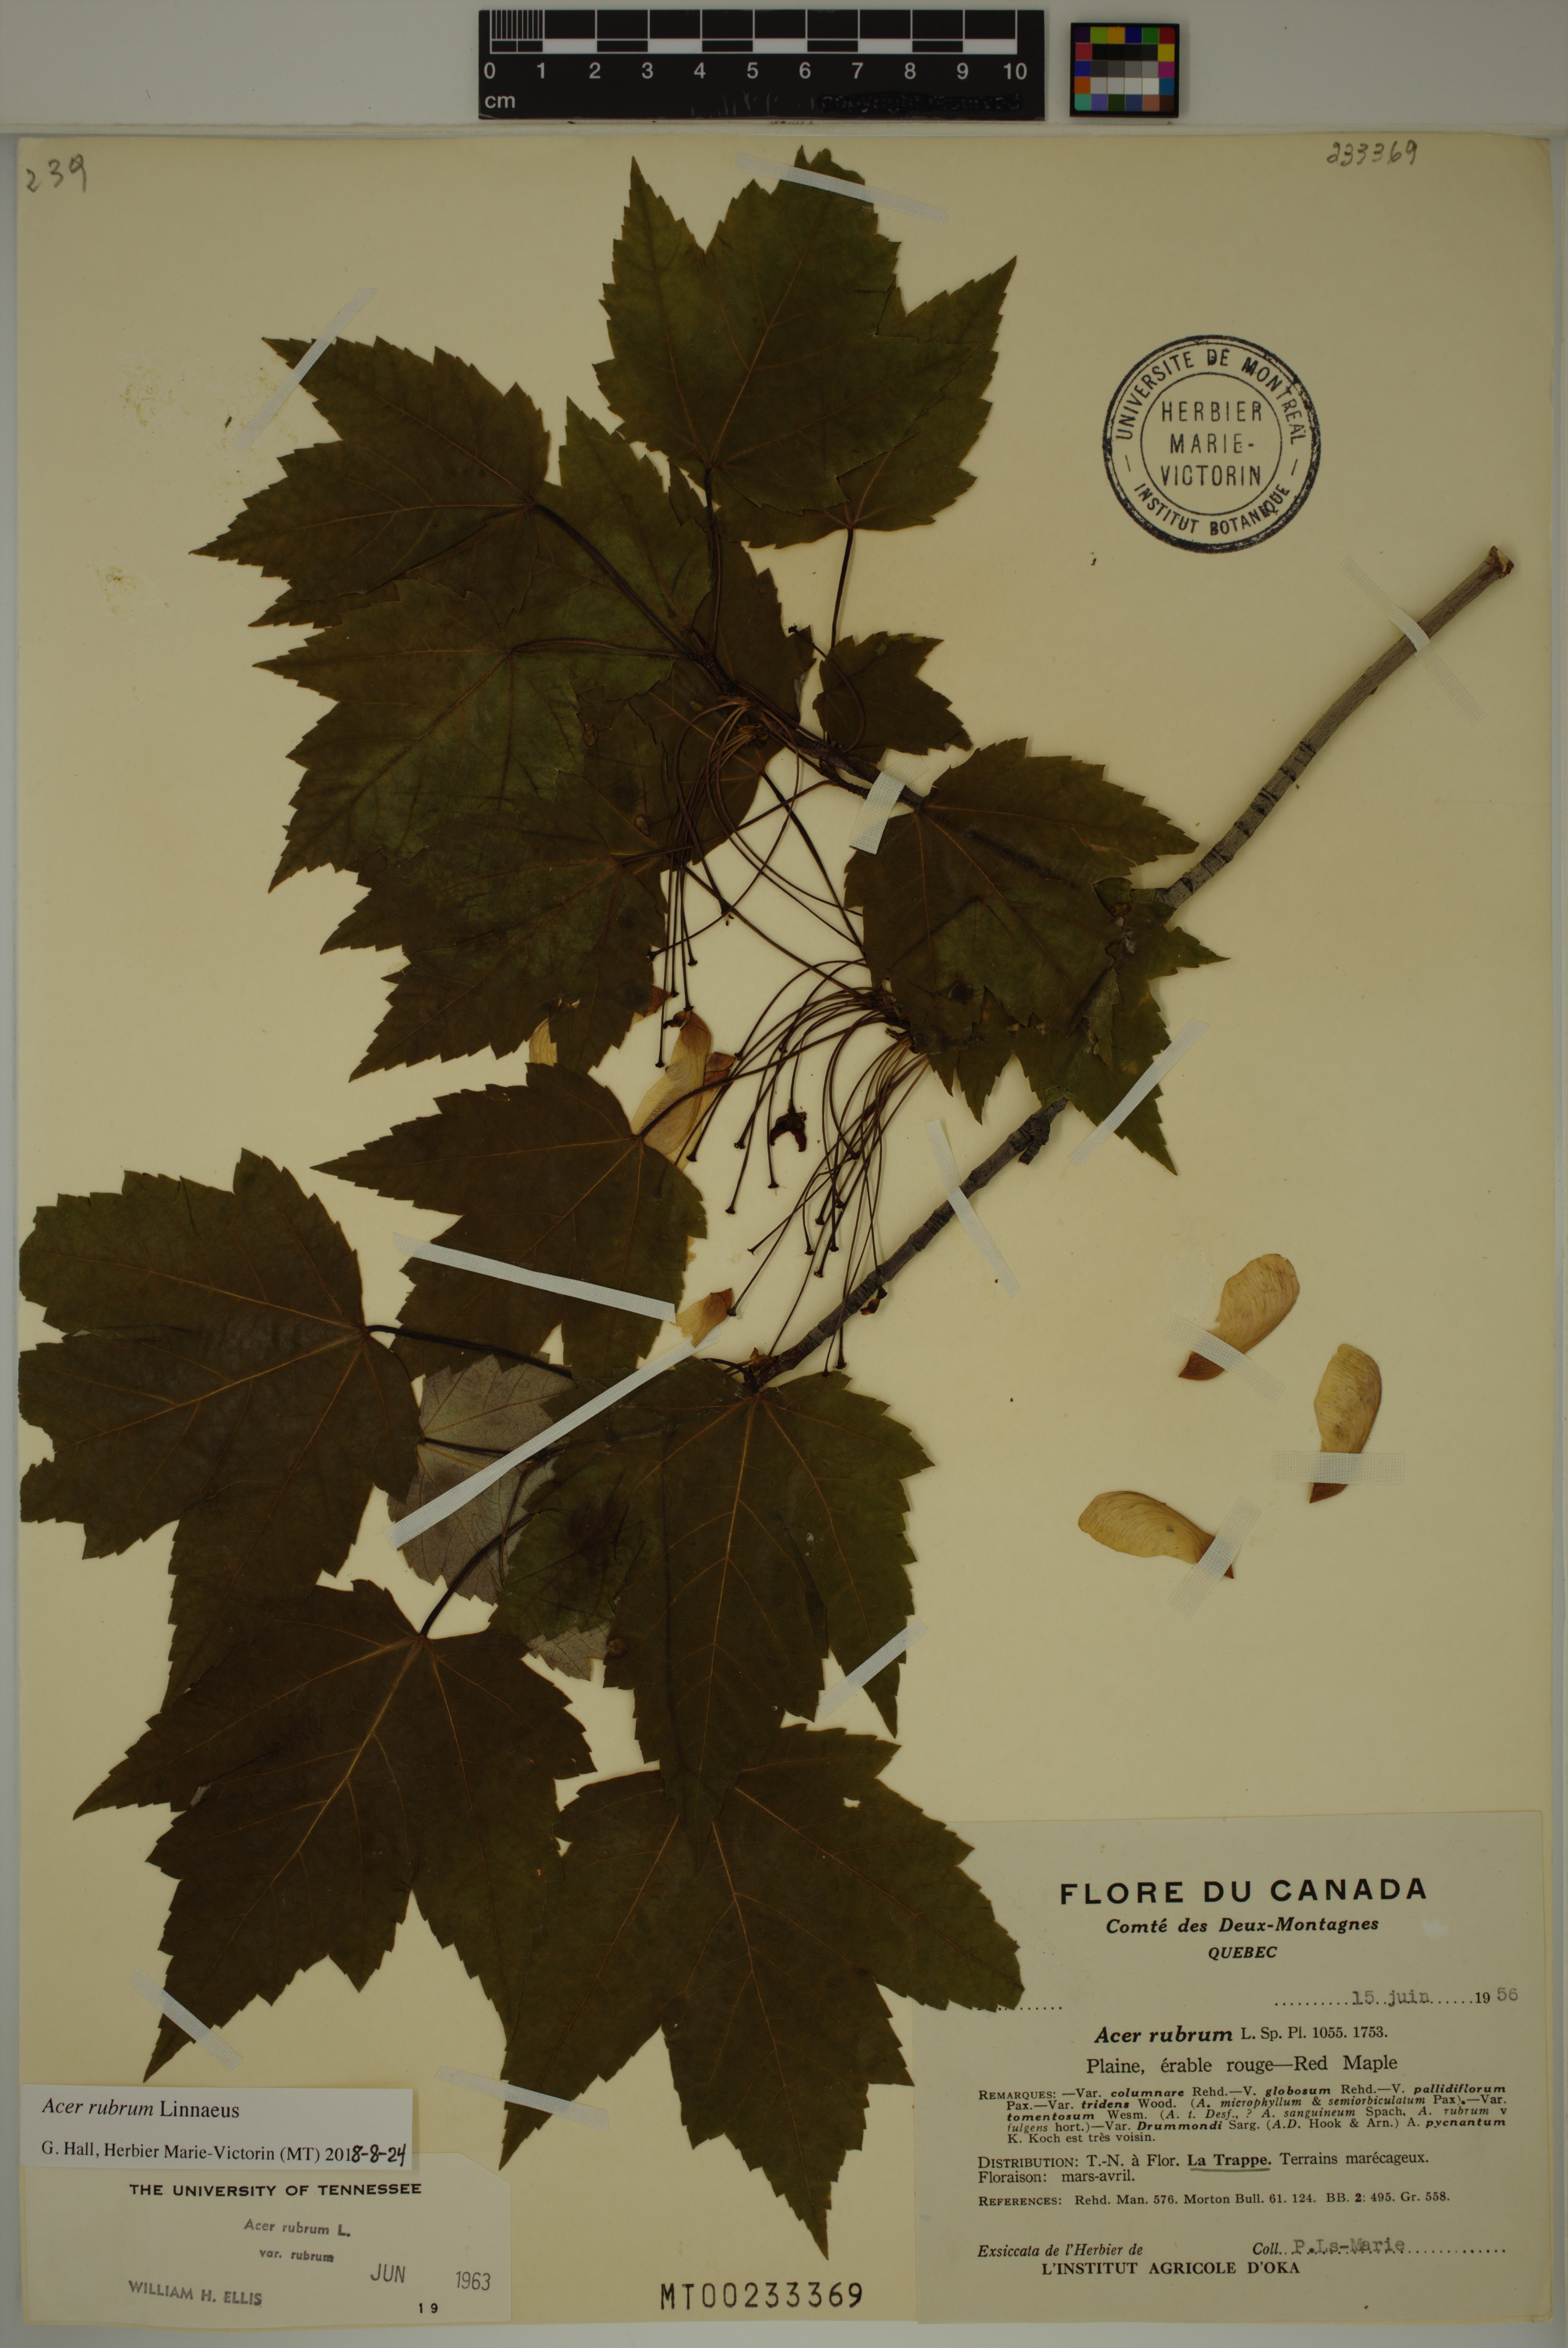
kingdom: Plantae
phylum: Tracheophyta
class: Magnoliopsida
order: Sapindales
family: Sapindaceae
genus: Acer
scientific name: Acer rubrum
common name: Red maple
